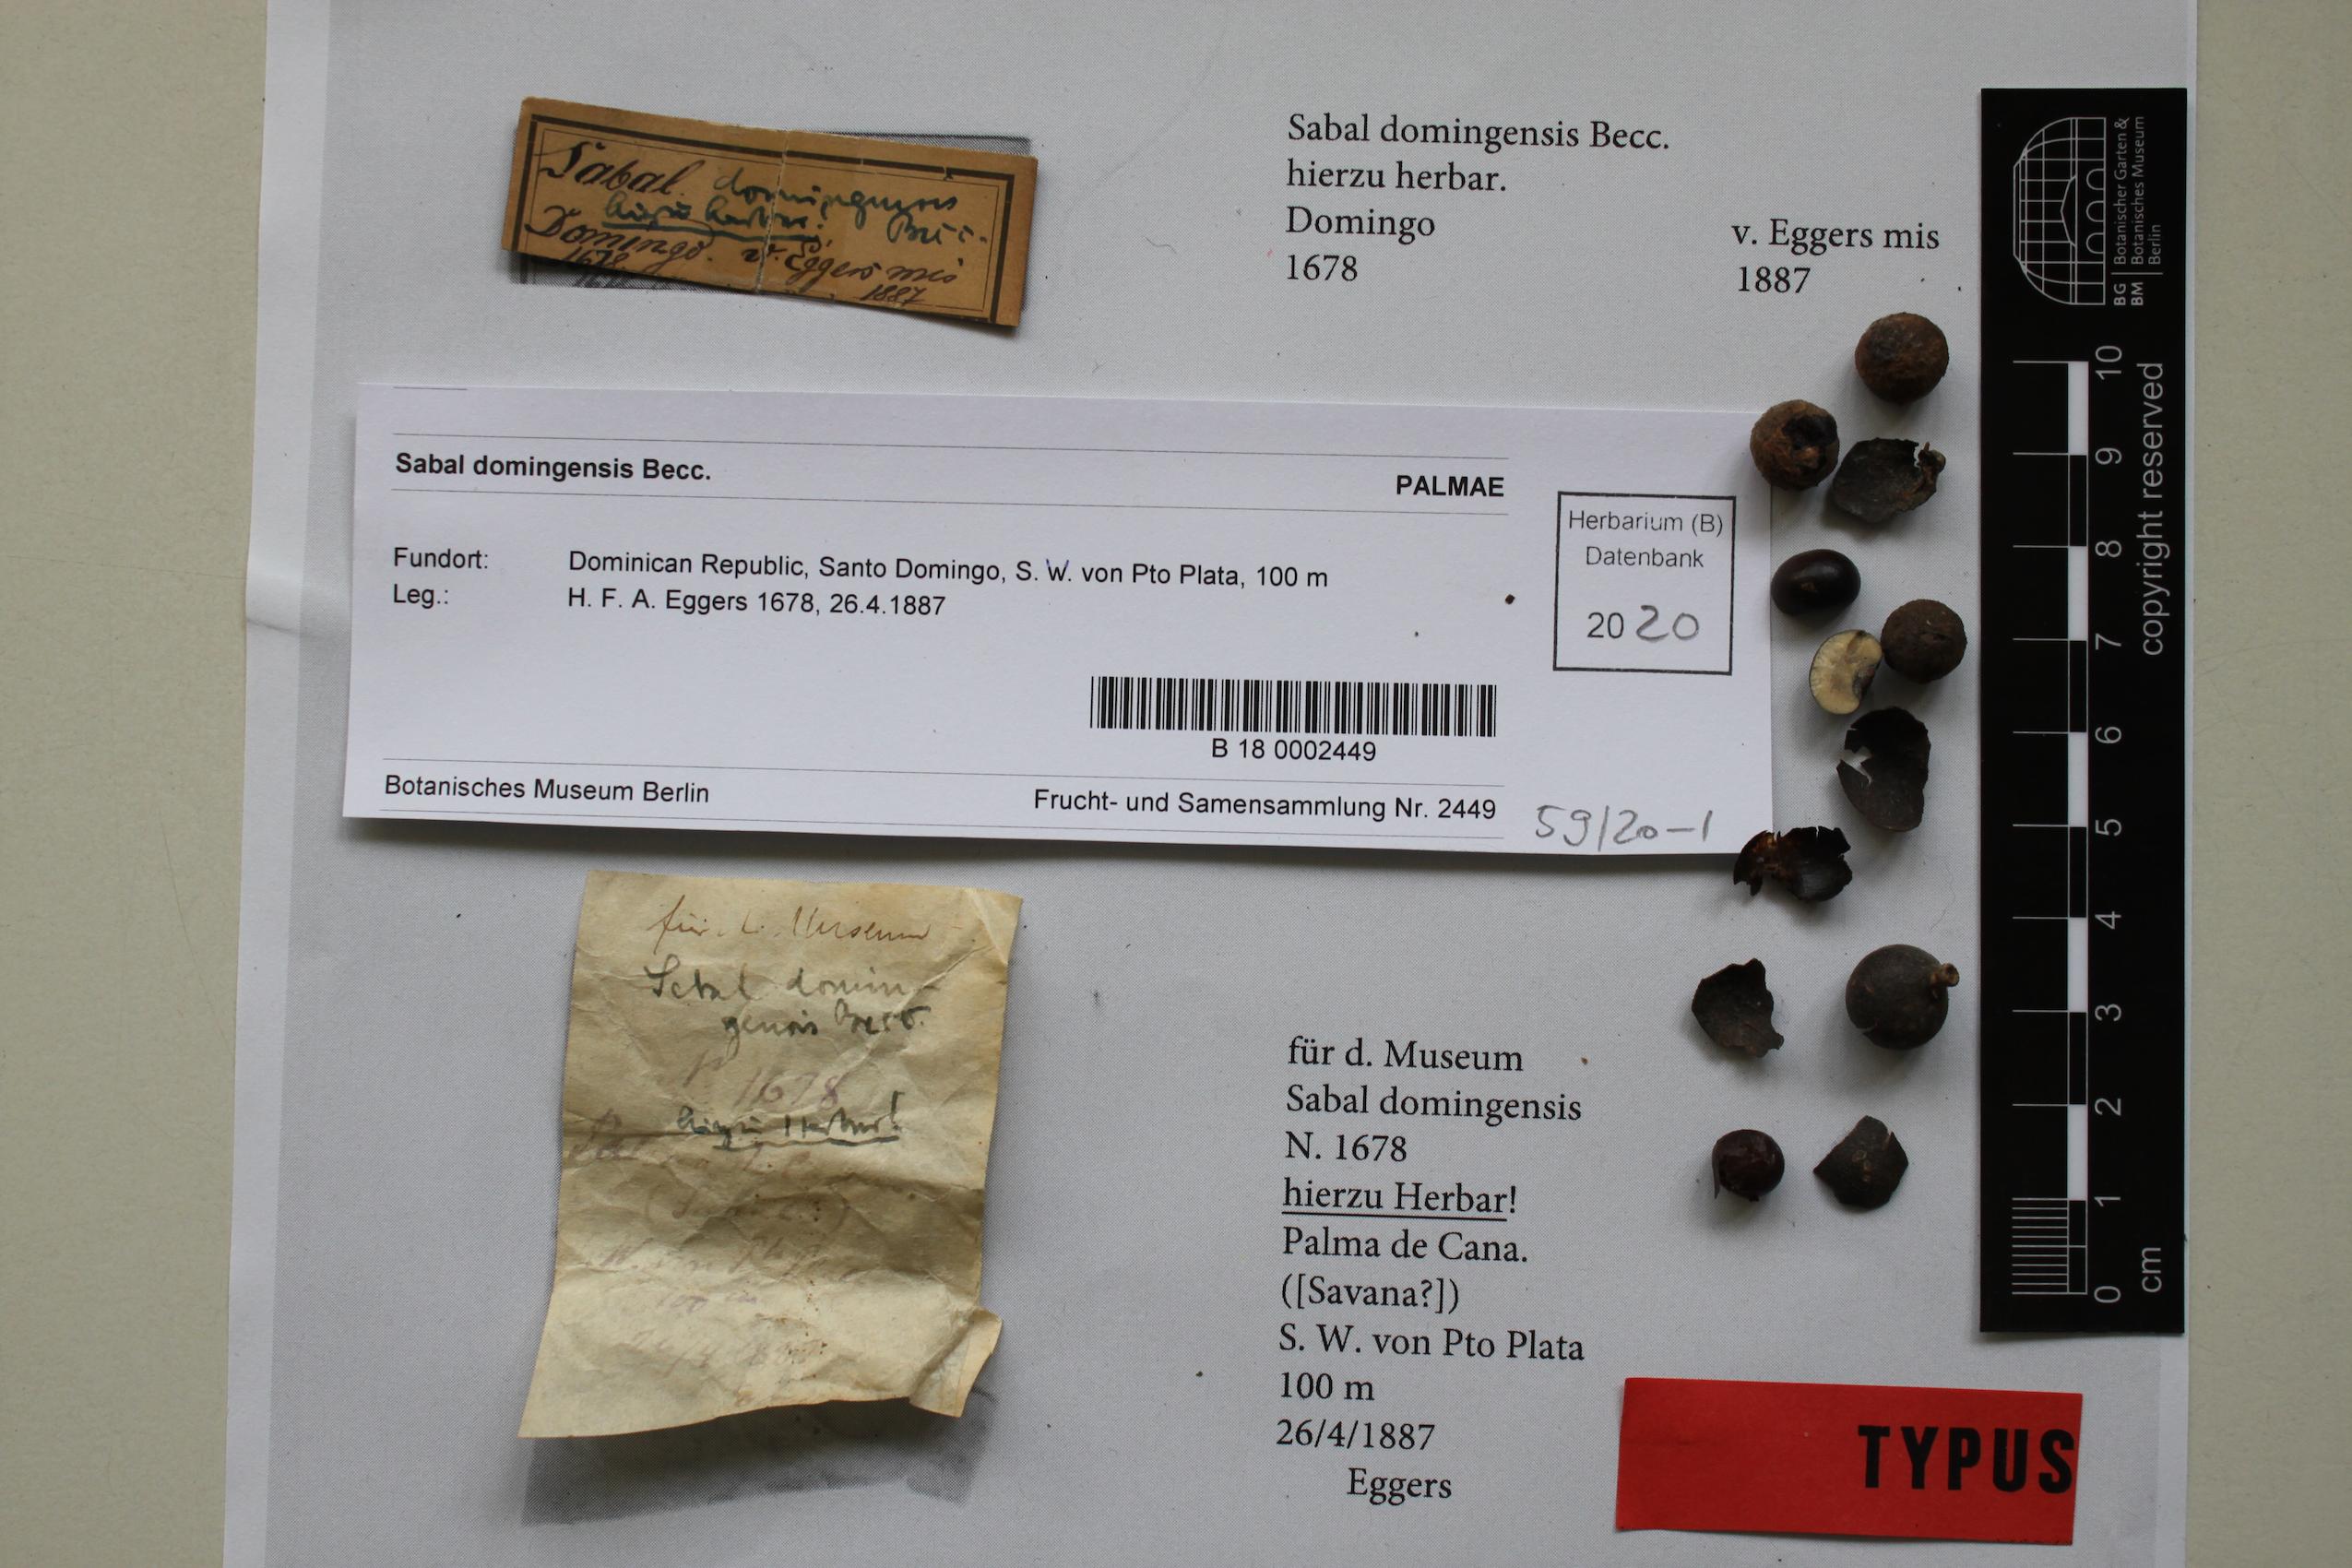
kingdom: Plantae
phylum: Tracheophyta
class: Liliopsida
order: Arecales
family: Arecaceae
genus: Sabal
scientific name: Sabal domingensis
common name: Hispaniola palmetto
